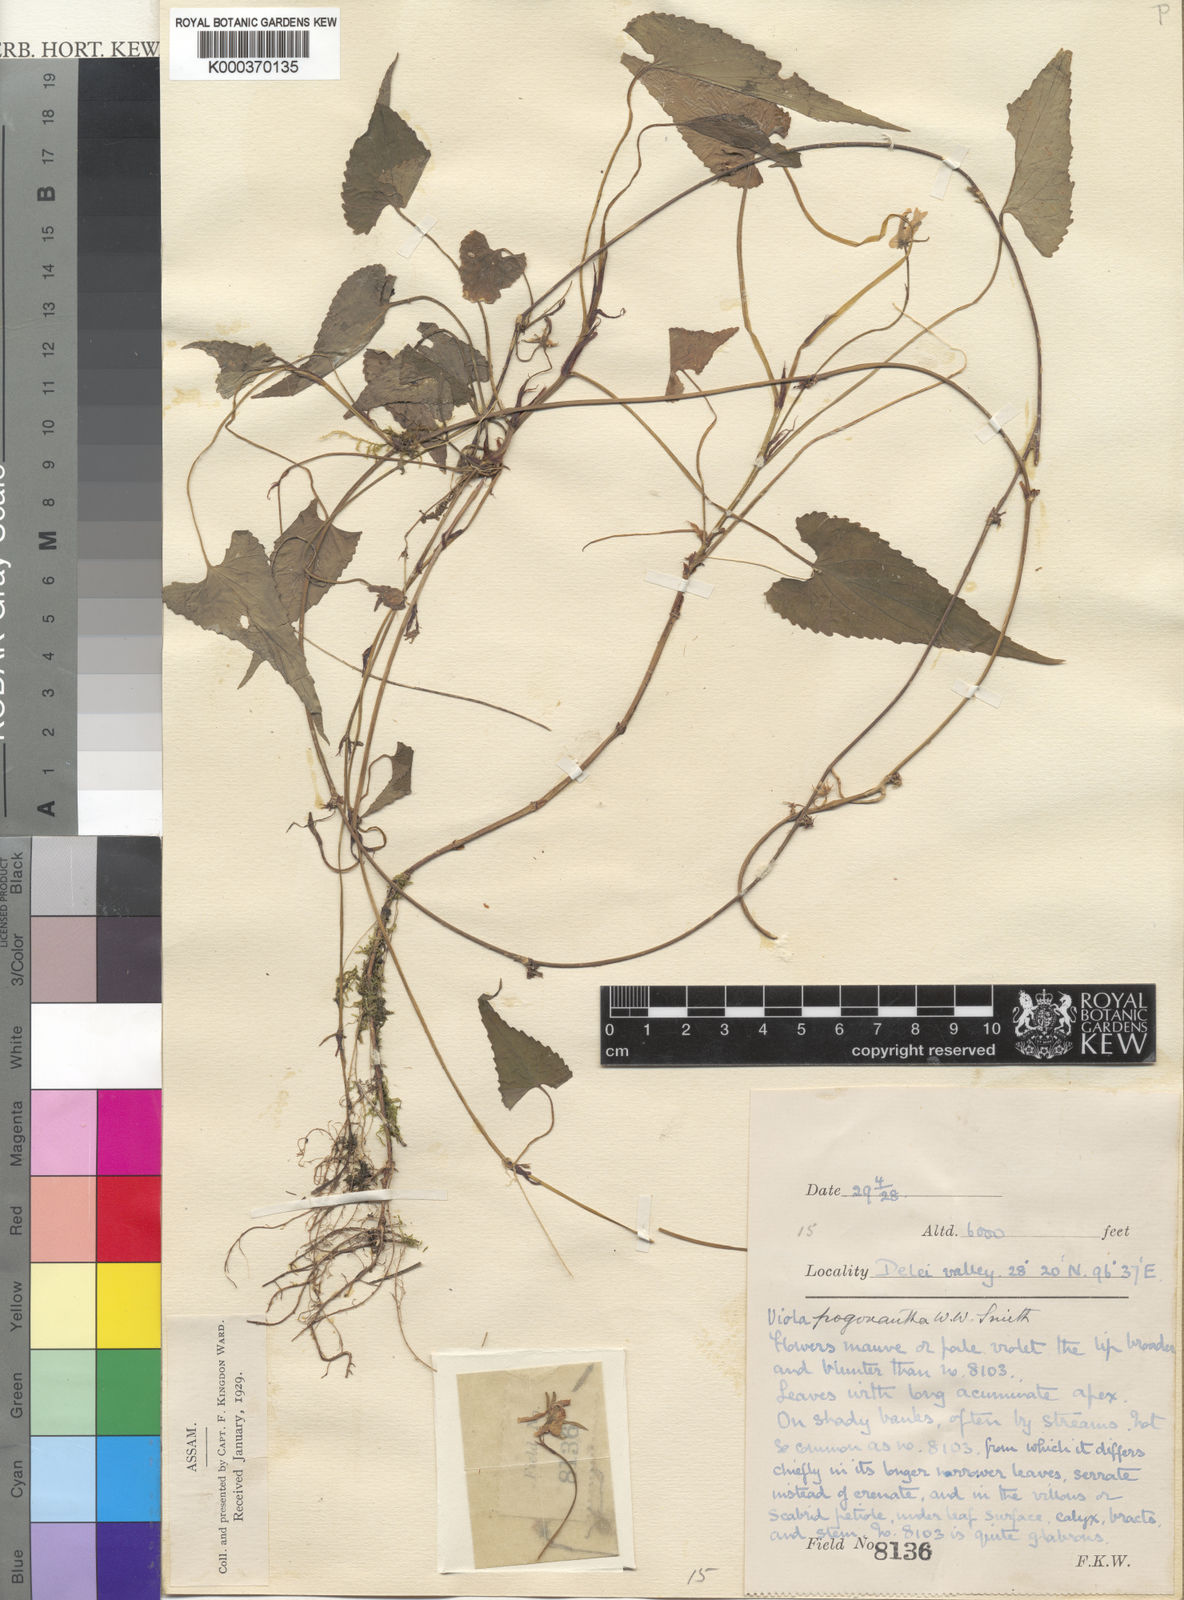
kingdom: Plantae
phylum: Tracheophyta
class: Magnoliopsida
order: Malpighiales
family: Violaceae
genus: Viola
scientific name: Viola pilosa
